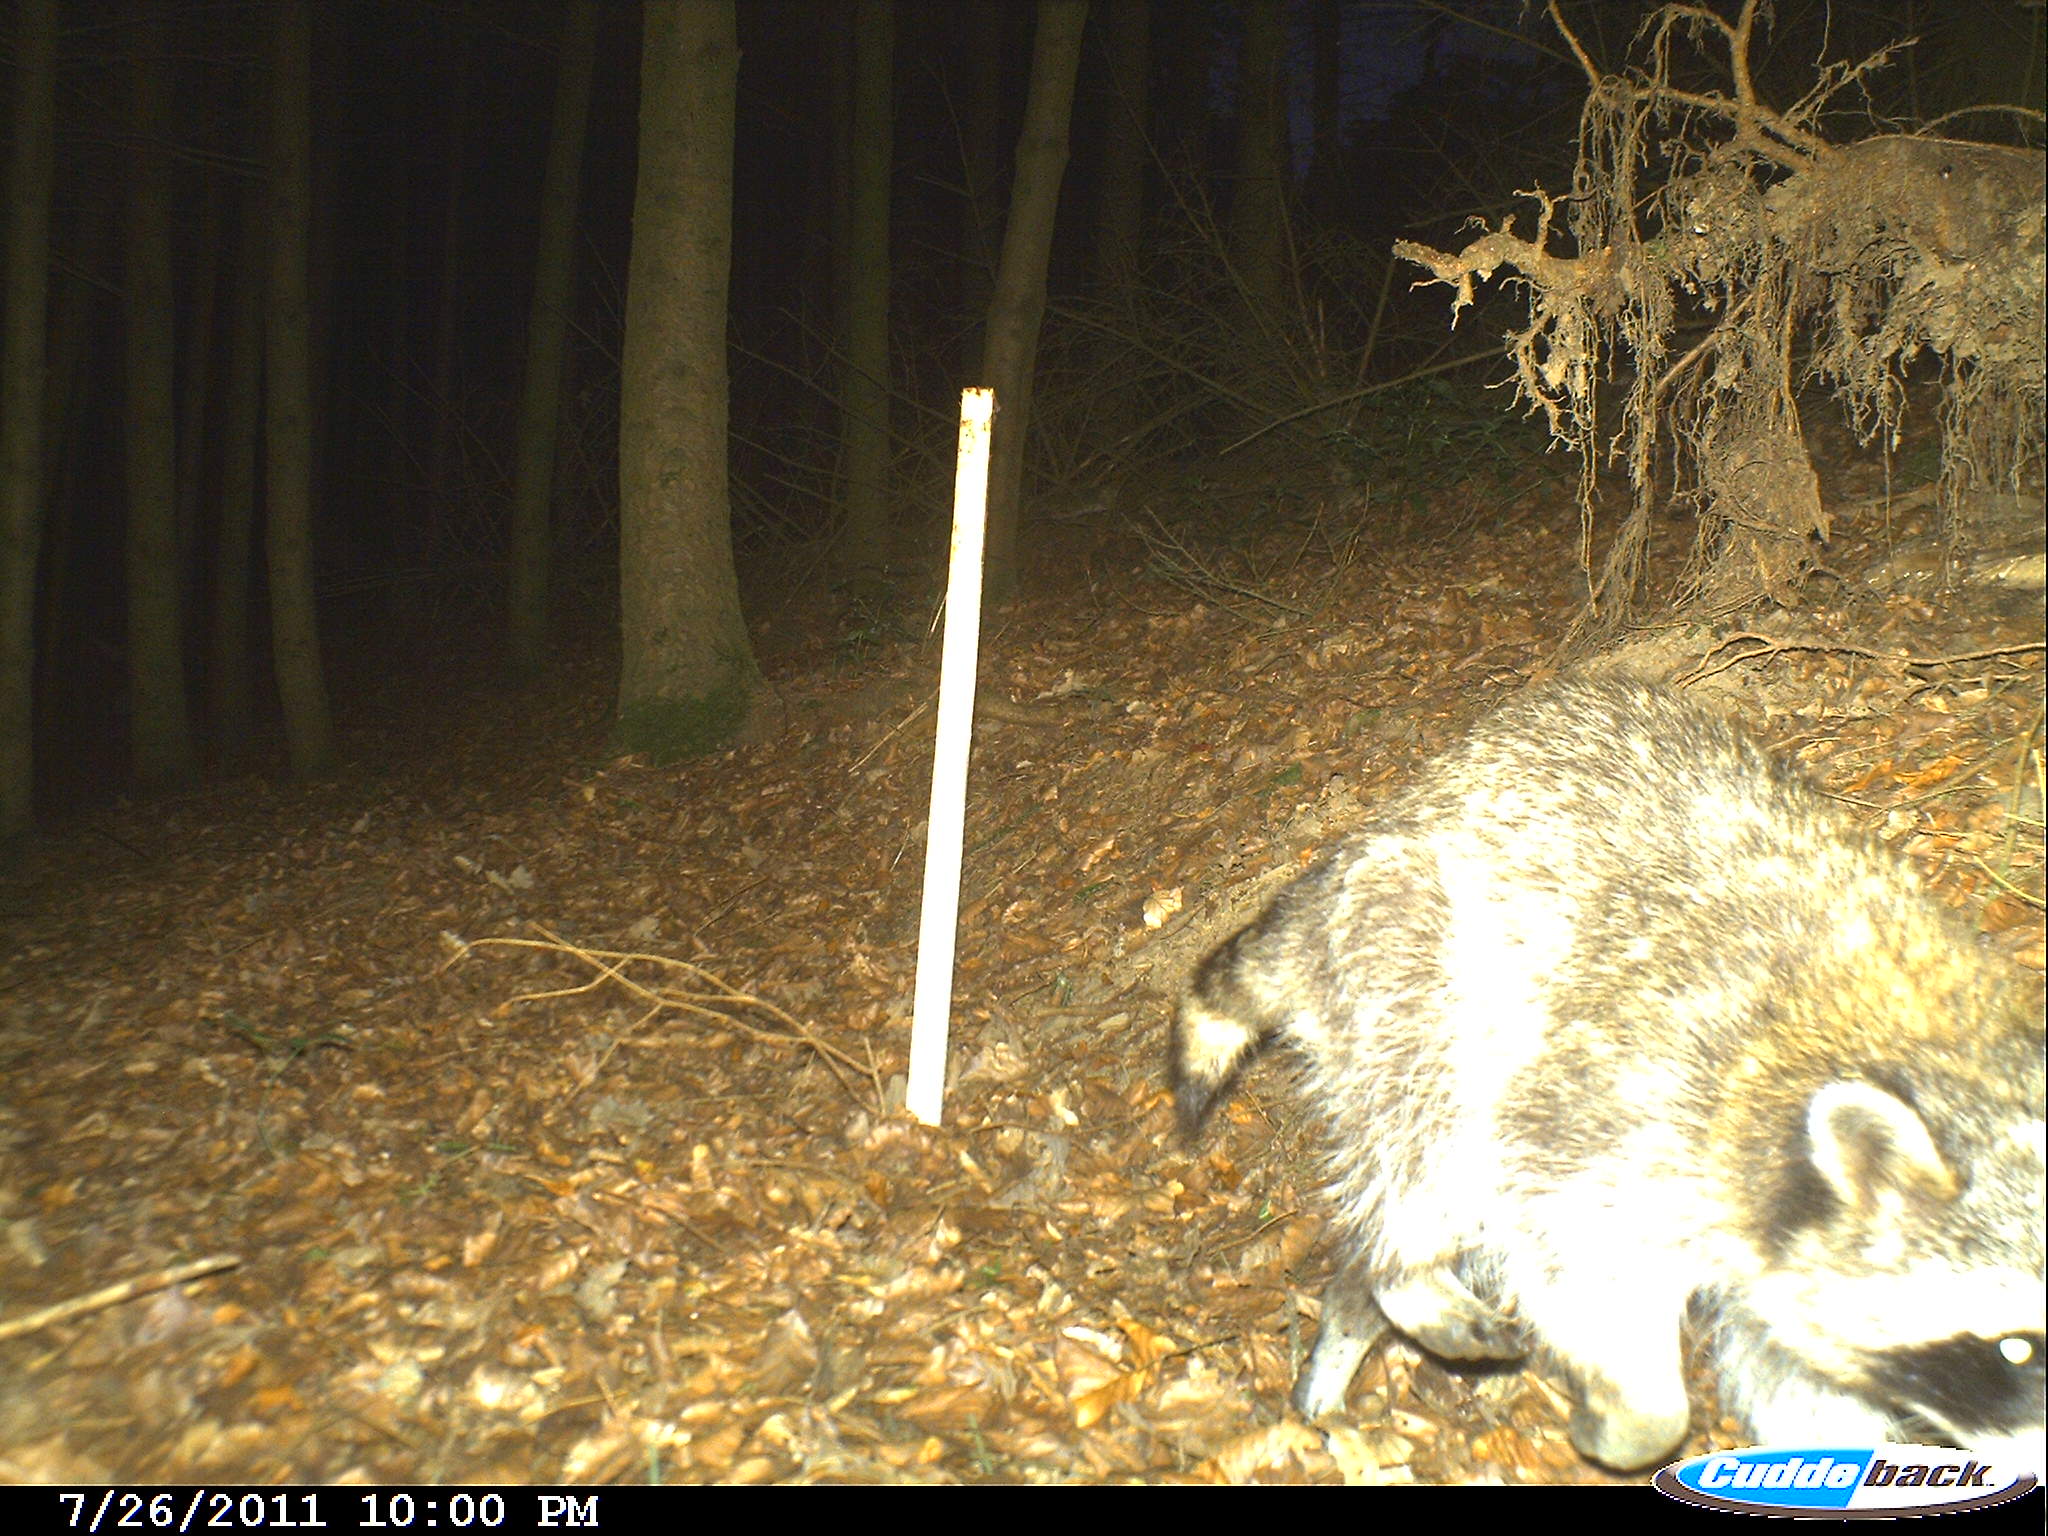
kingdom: Animalia
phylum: Chordata
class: Mammalia
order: Carnivora
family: Procyonidae
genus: Procyon
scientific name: Procyon lotor
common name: Raccoon
